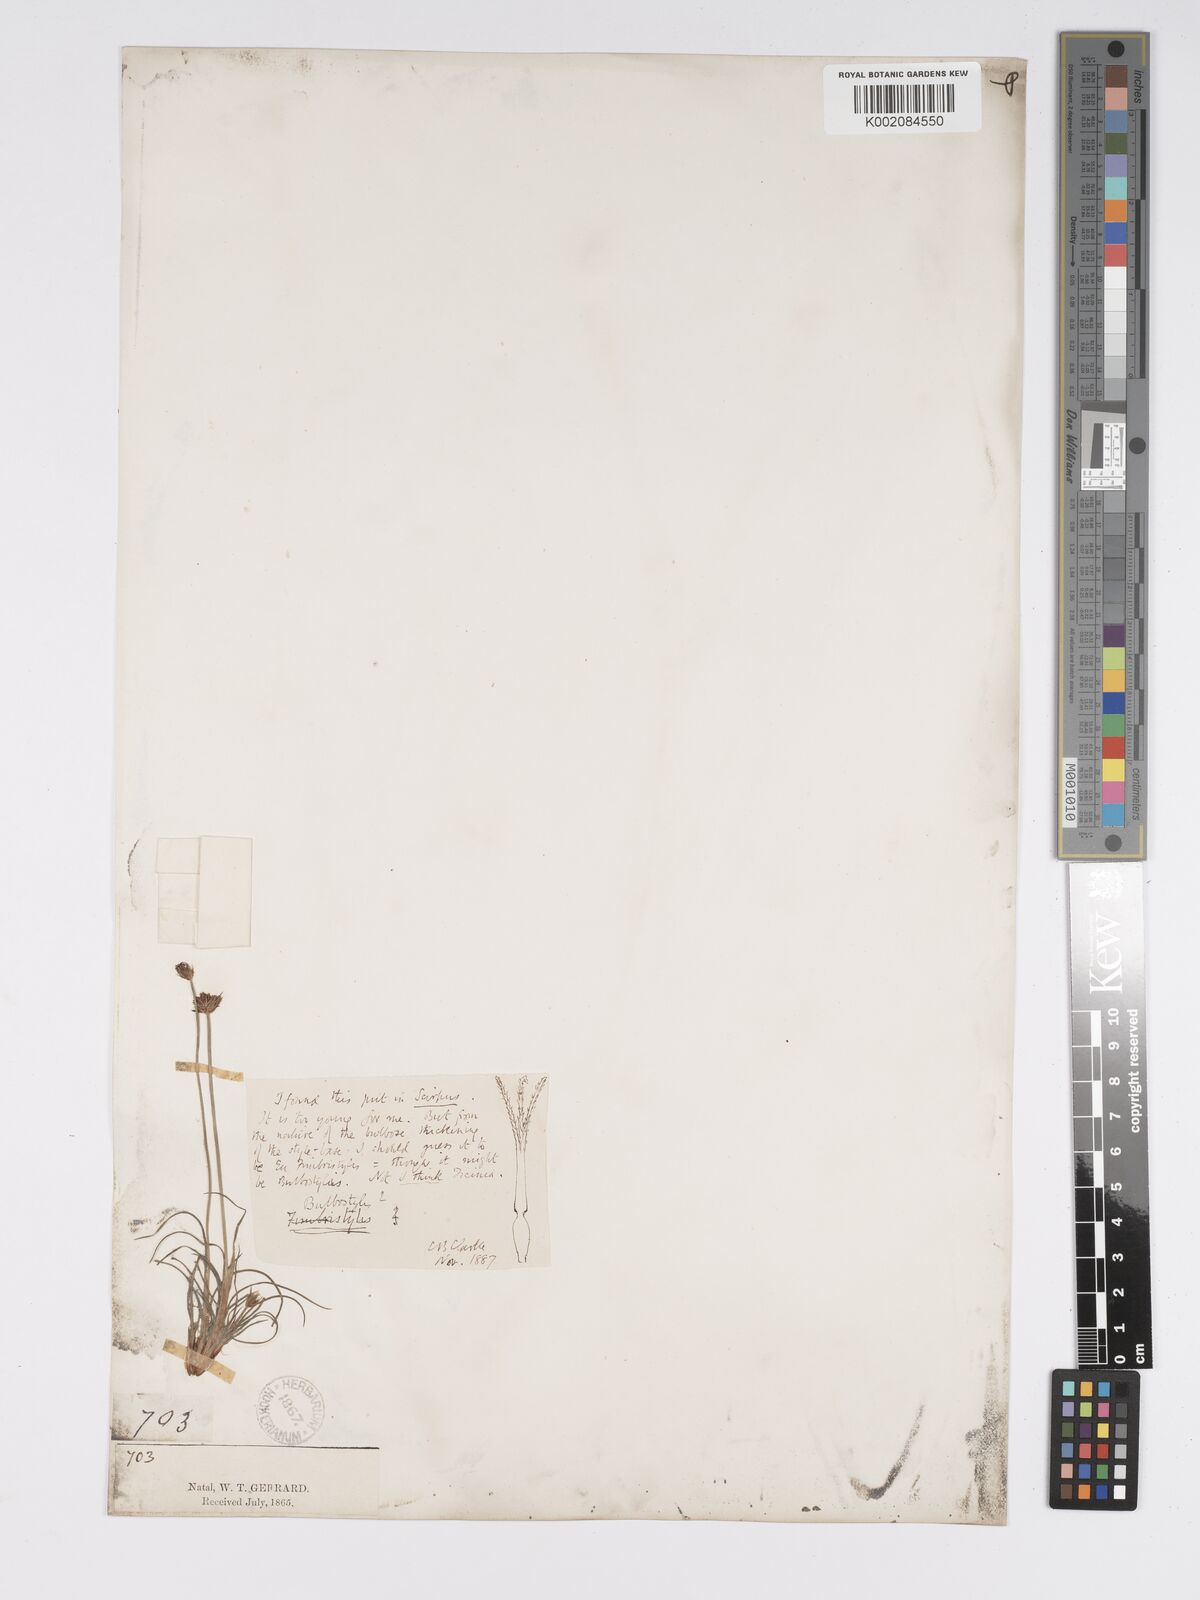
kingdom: Plantae
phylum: Tracheophyta
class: Liliopsida
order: Poales
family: Cyperaceae
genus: Bulbostylis
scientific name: Bulbostylis contexta
